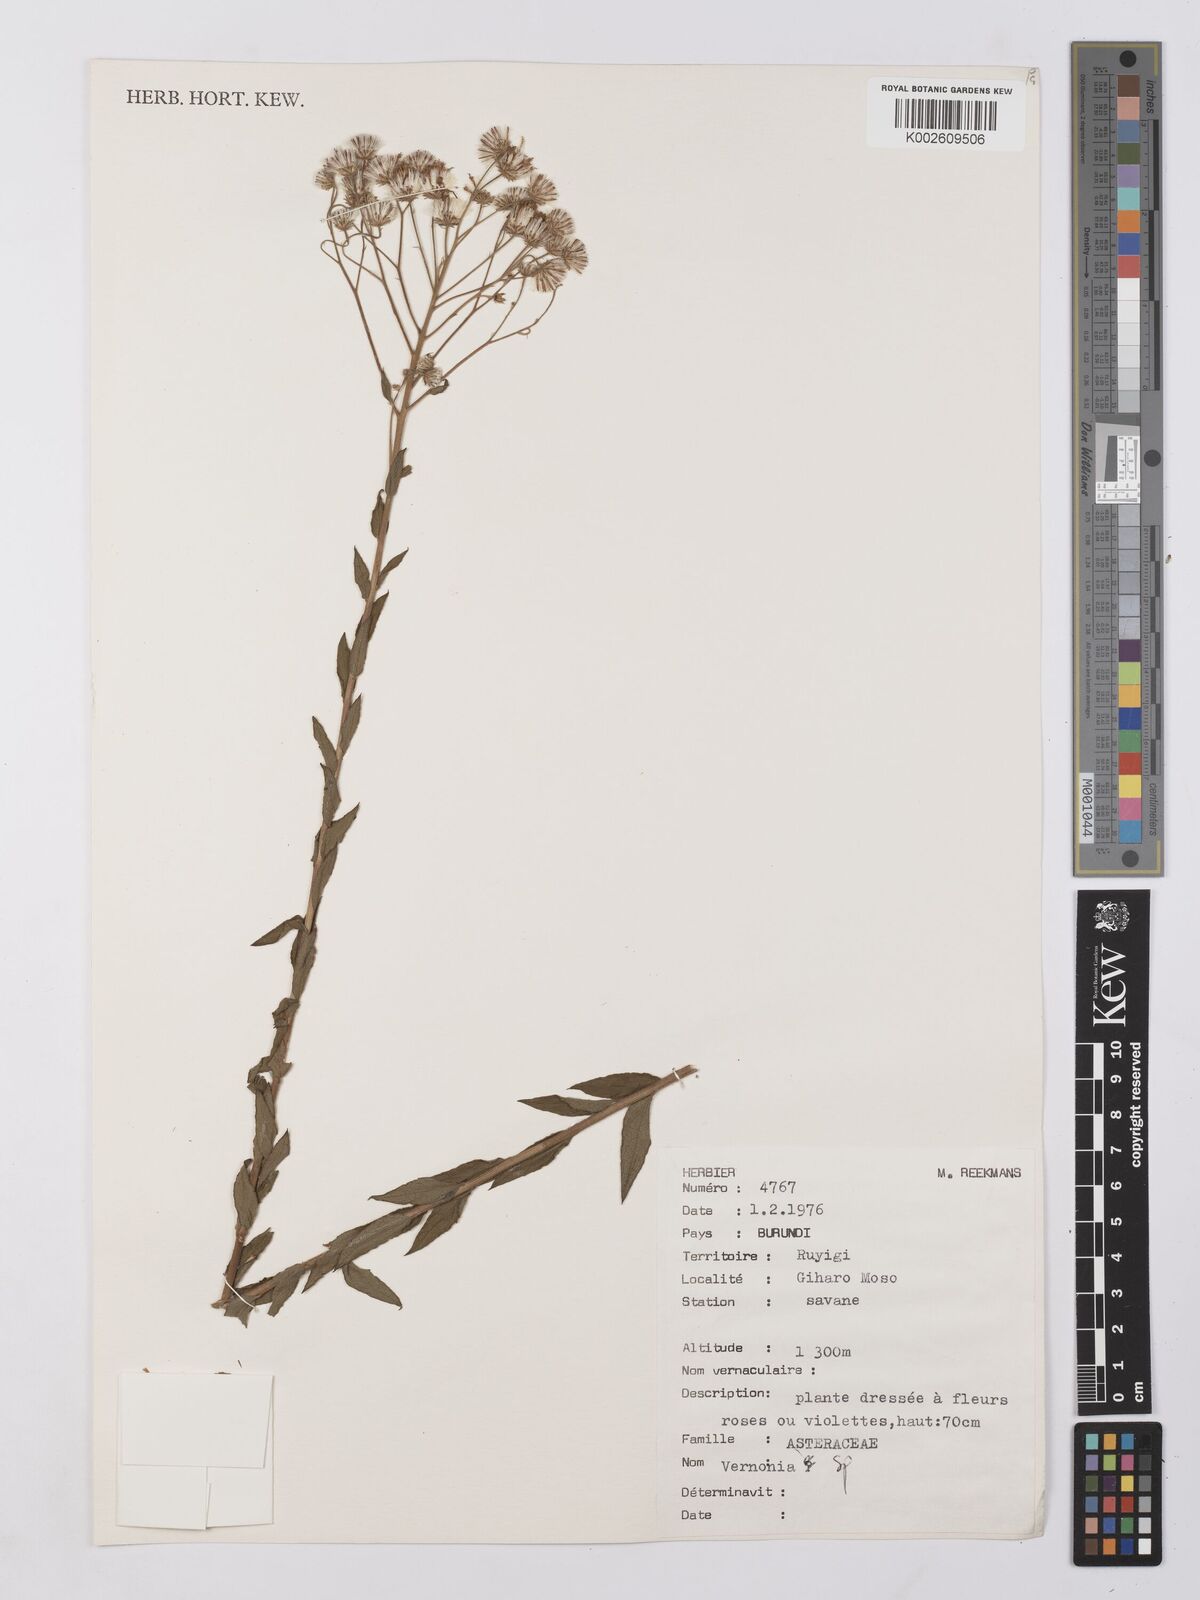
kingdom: Plantae
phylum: Tracheophyta
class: Magnoliopsida
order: Asterales
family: Asteraceae
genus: Vernonia
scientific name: Vernonia
